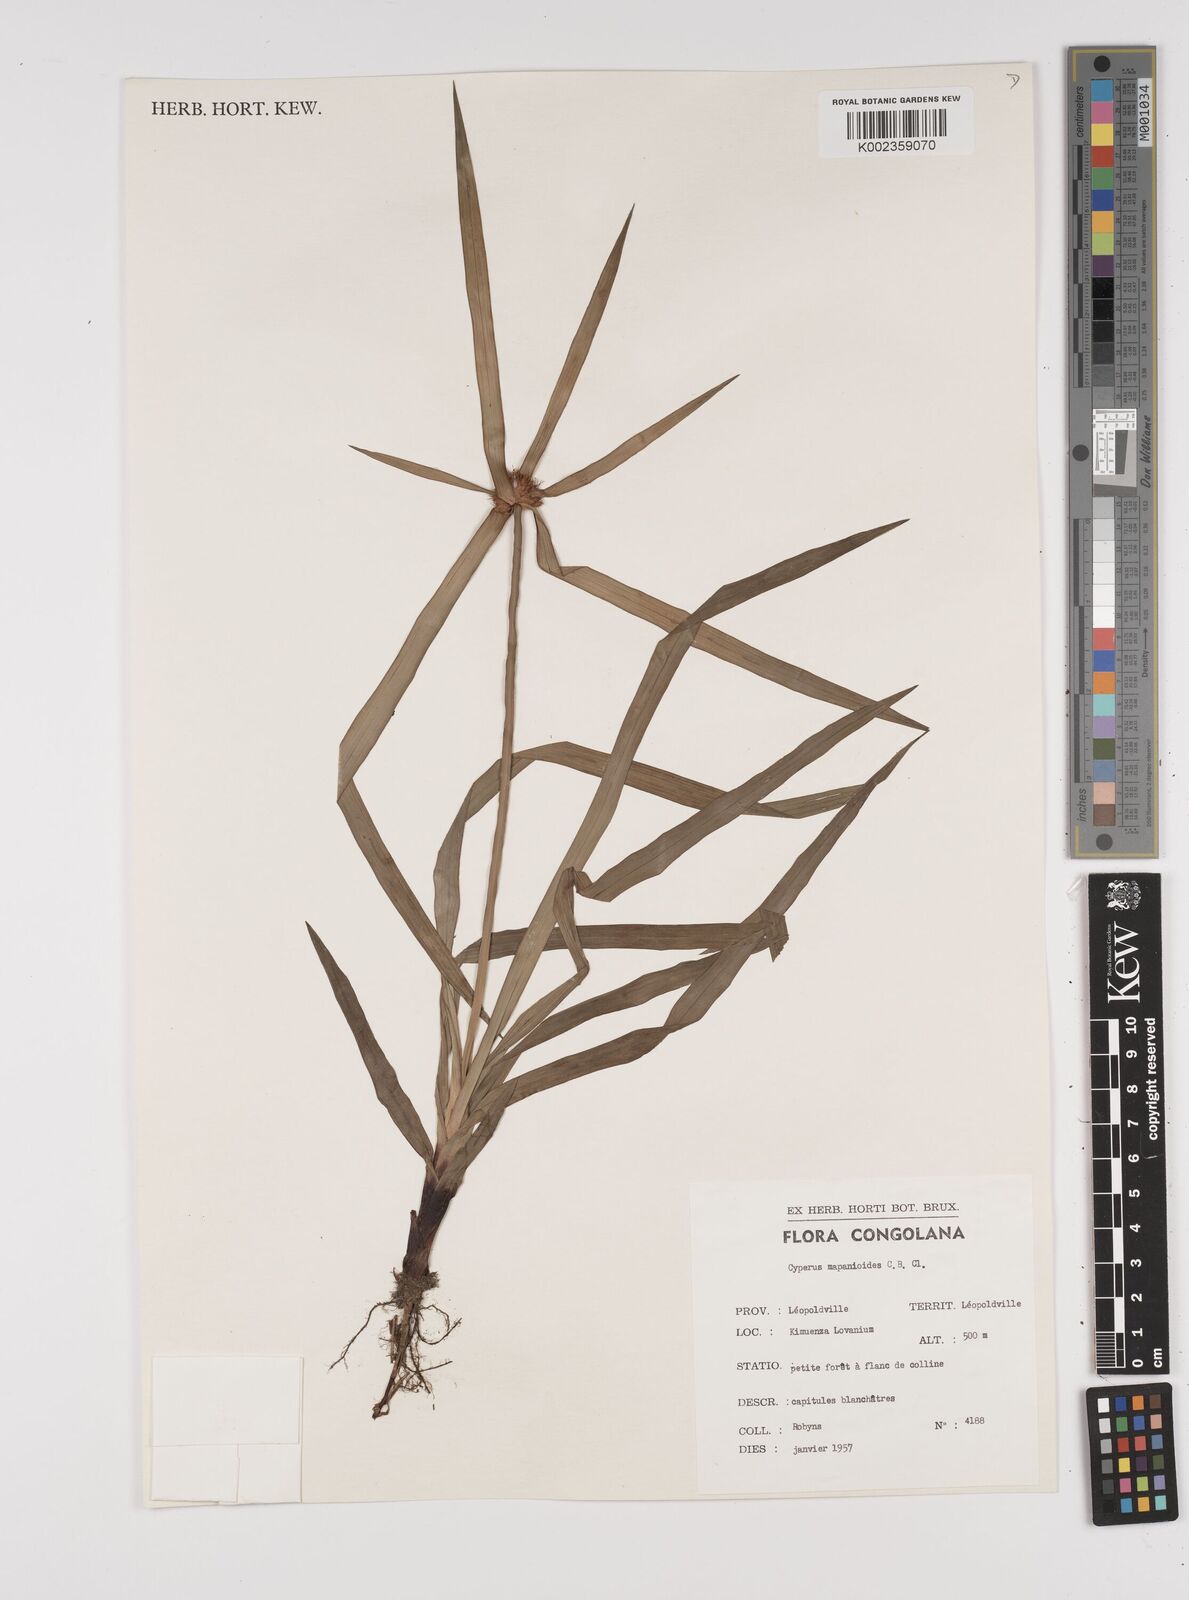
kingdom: Plantae
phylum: Tracheophyta
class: Liliopsida
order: Poales
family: Cyperaceae
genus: Cyperus
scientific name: Cyperus mapanioides
